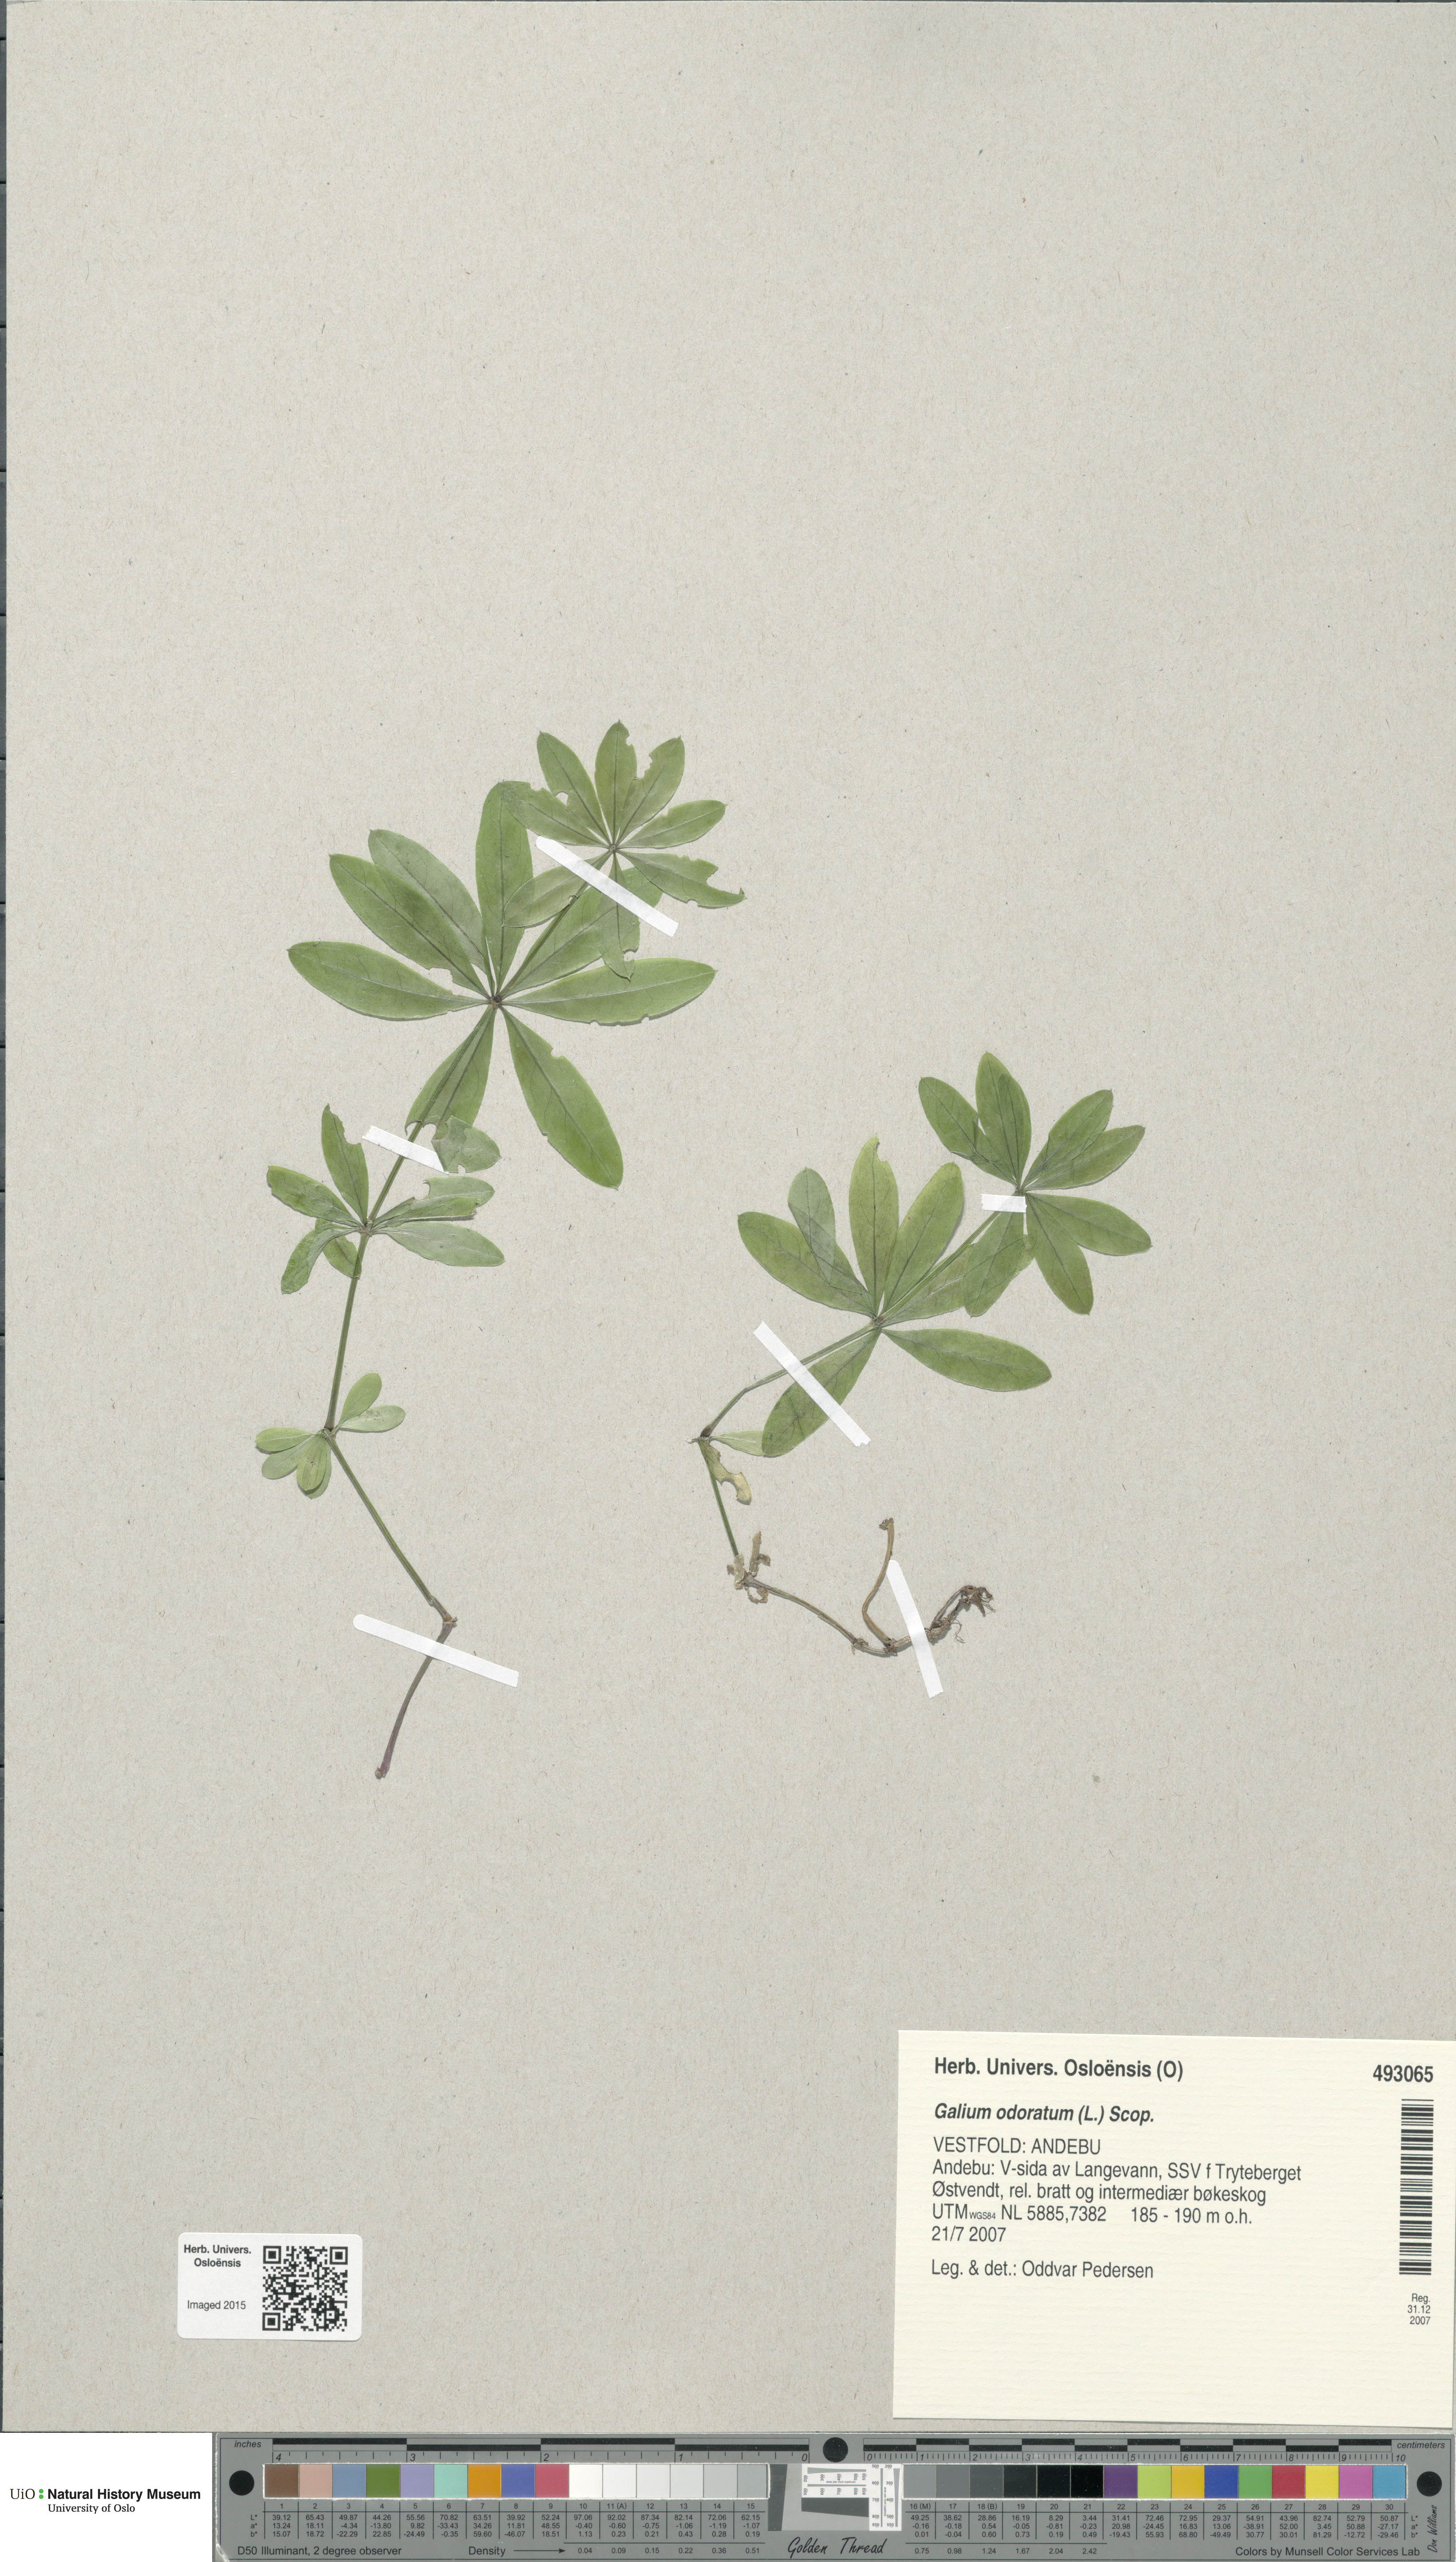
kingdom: Plantae
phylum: Tracheophyta
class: Magnoliopsida
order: Gentianales
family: Rubiaceae
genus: Galium
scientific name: Galium odoratum
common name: Sweet woodruff
